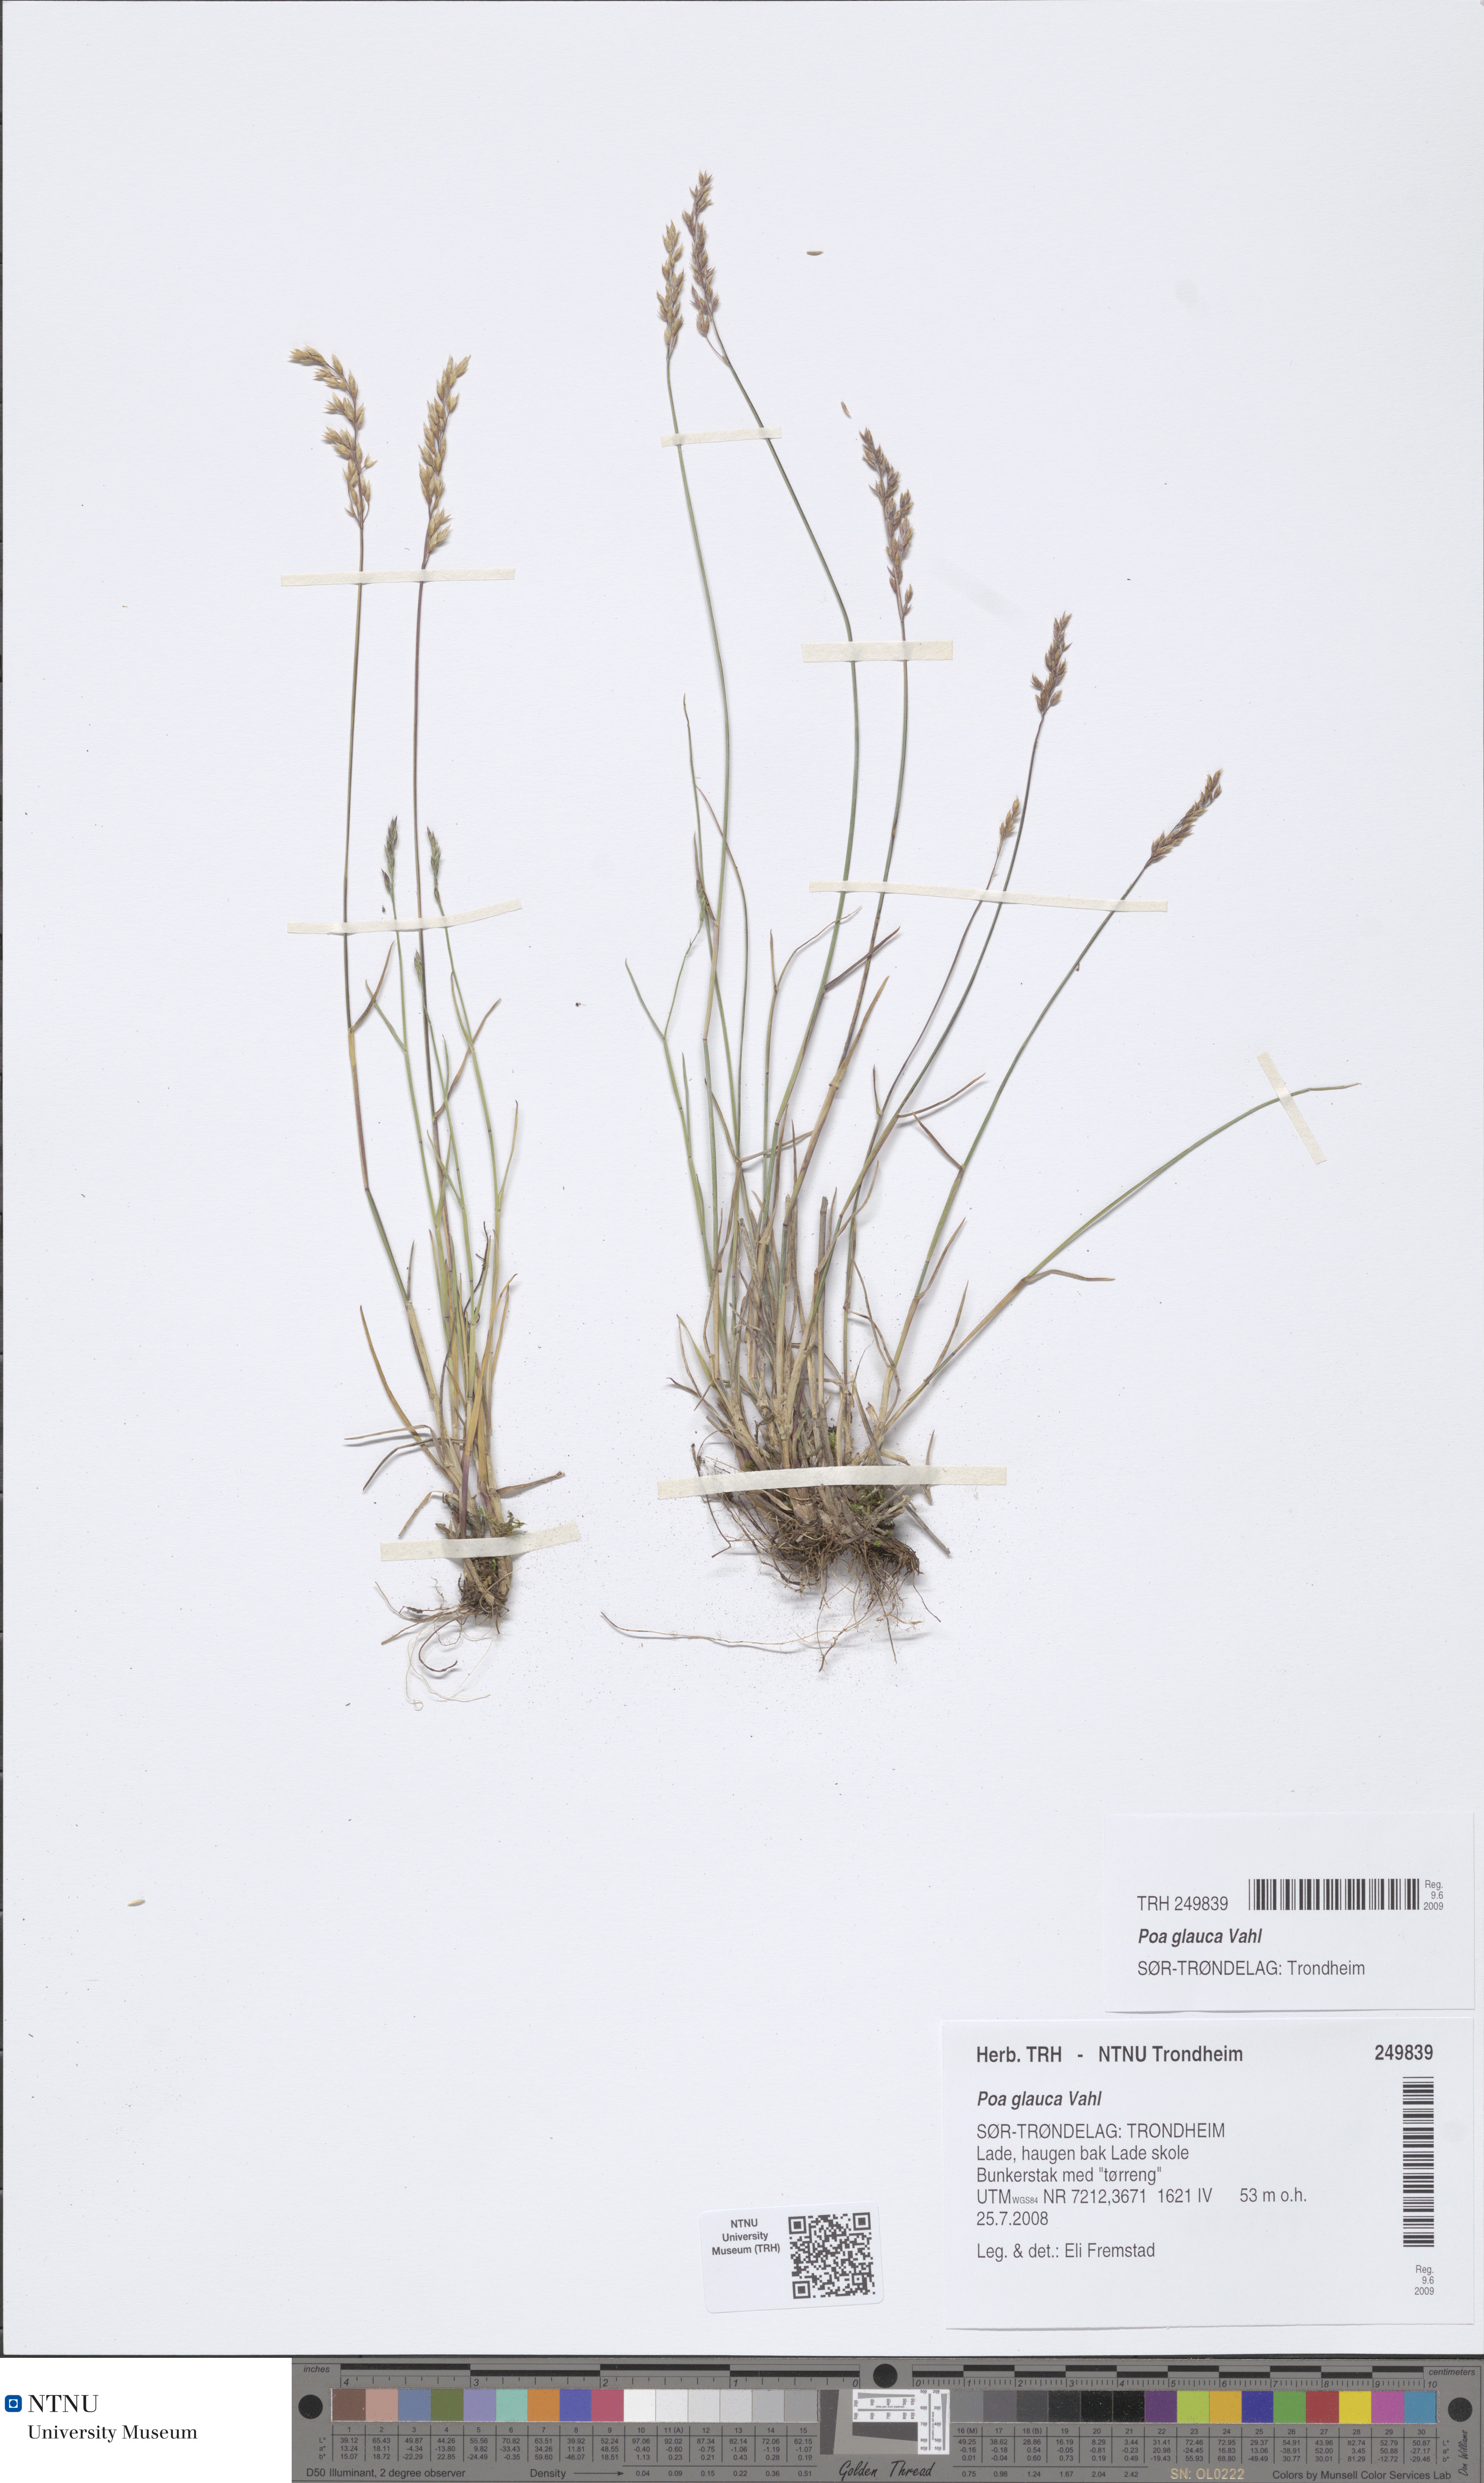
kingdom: Plantae
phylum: Tracheophyta
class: Liliopsida
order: Poales
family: Poaceae
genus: Poa
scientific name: Poa glauca
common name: Glaucous bluegrass
